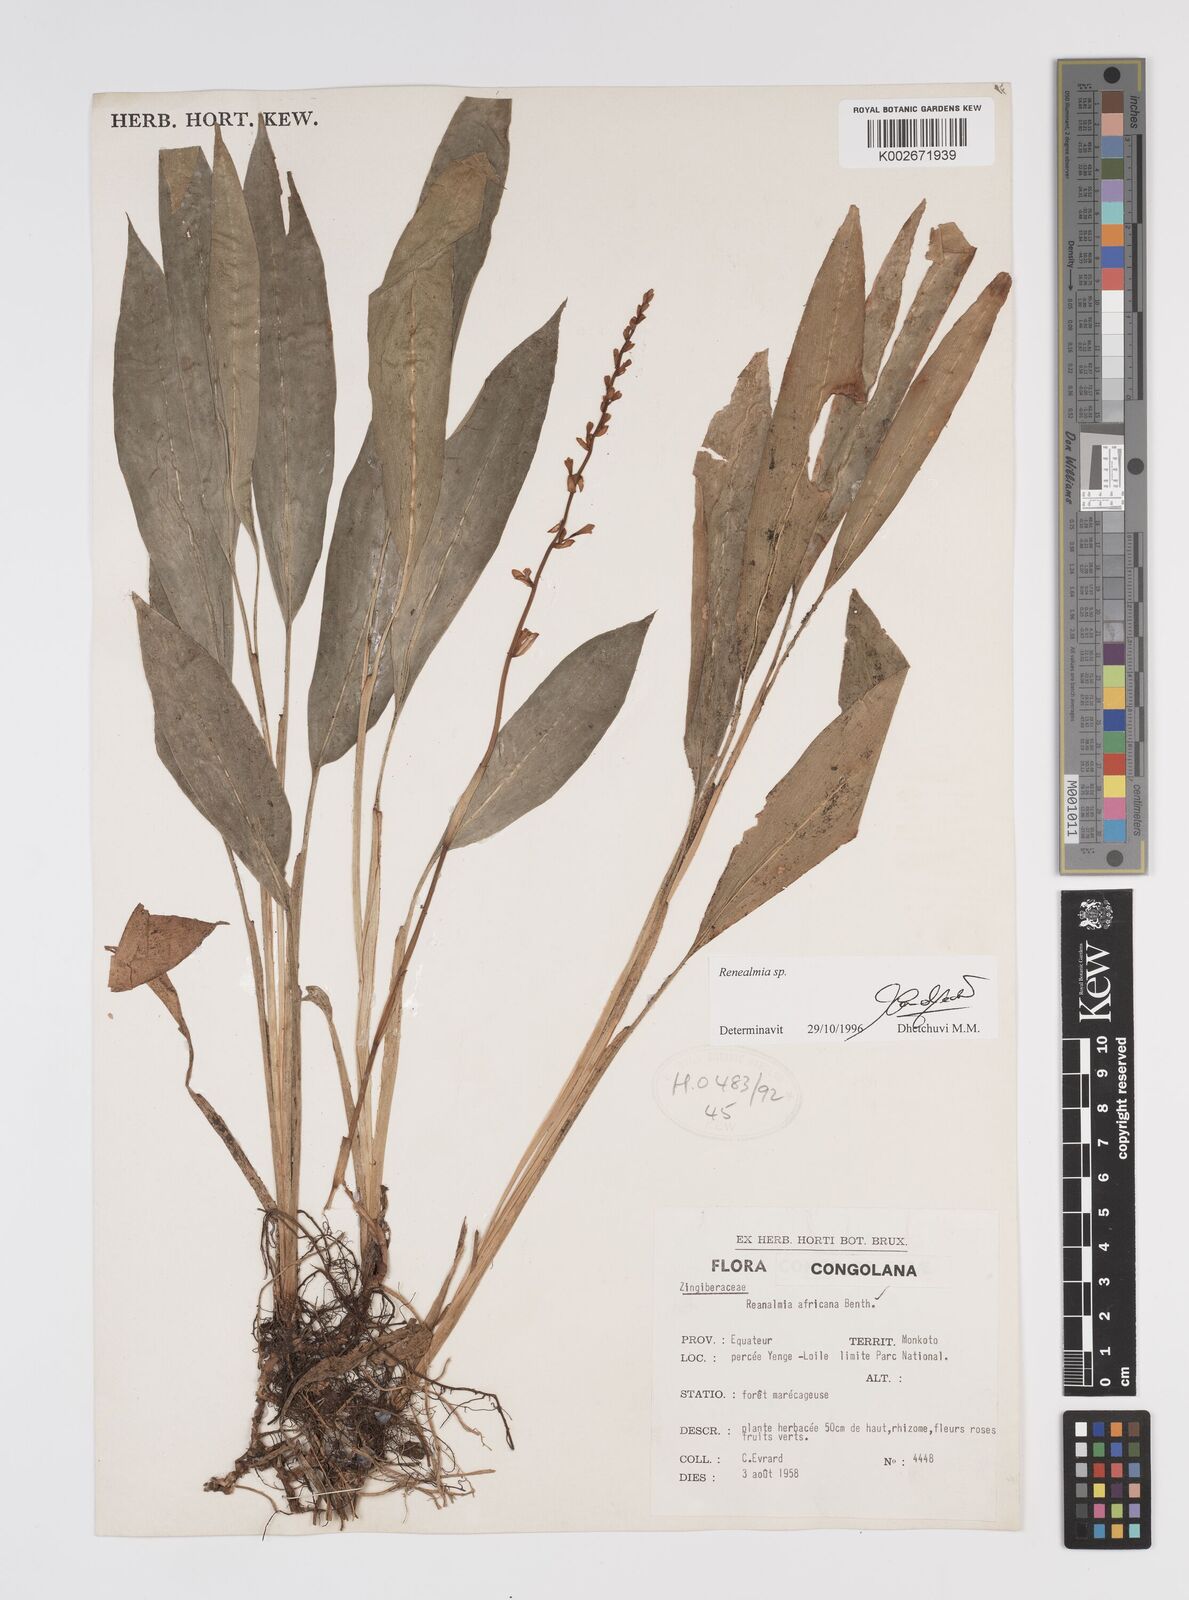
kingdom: Plantae
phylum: Tracheophyta
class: Liliopsida
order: Zingiberales
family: Zingiberaceae
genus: Renealmia
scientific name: Renealmia
